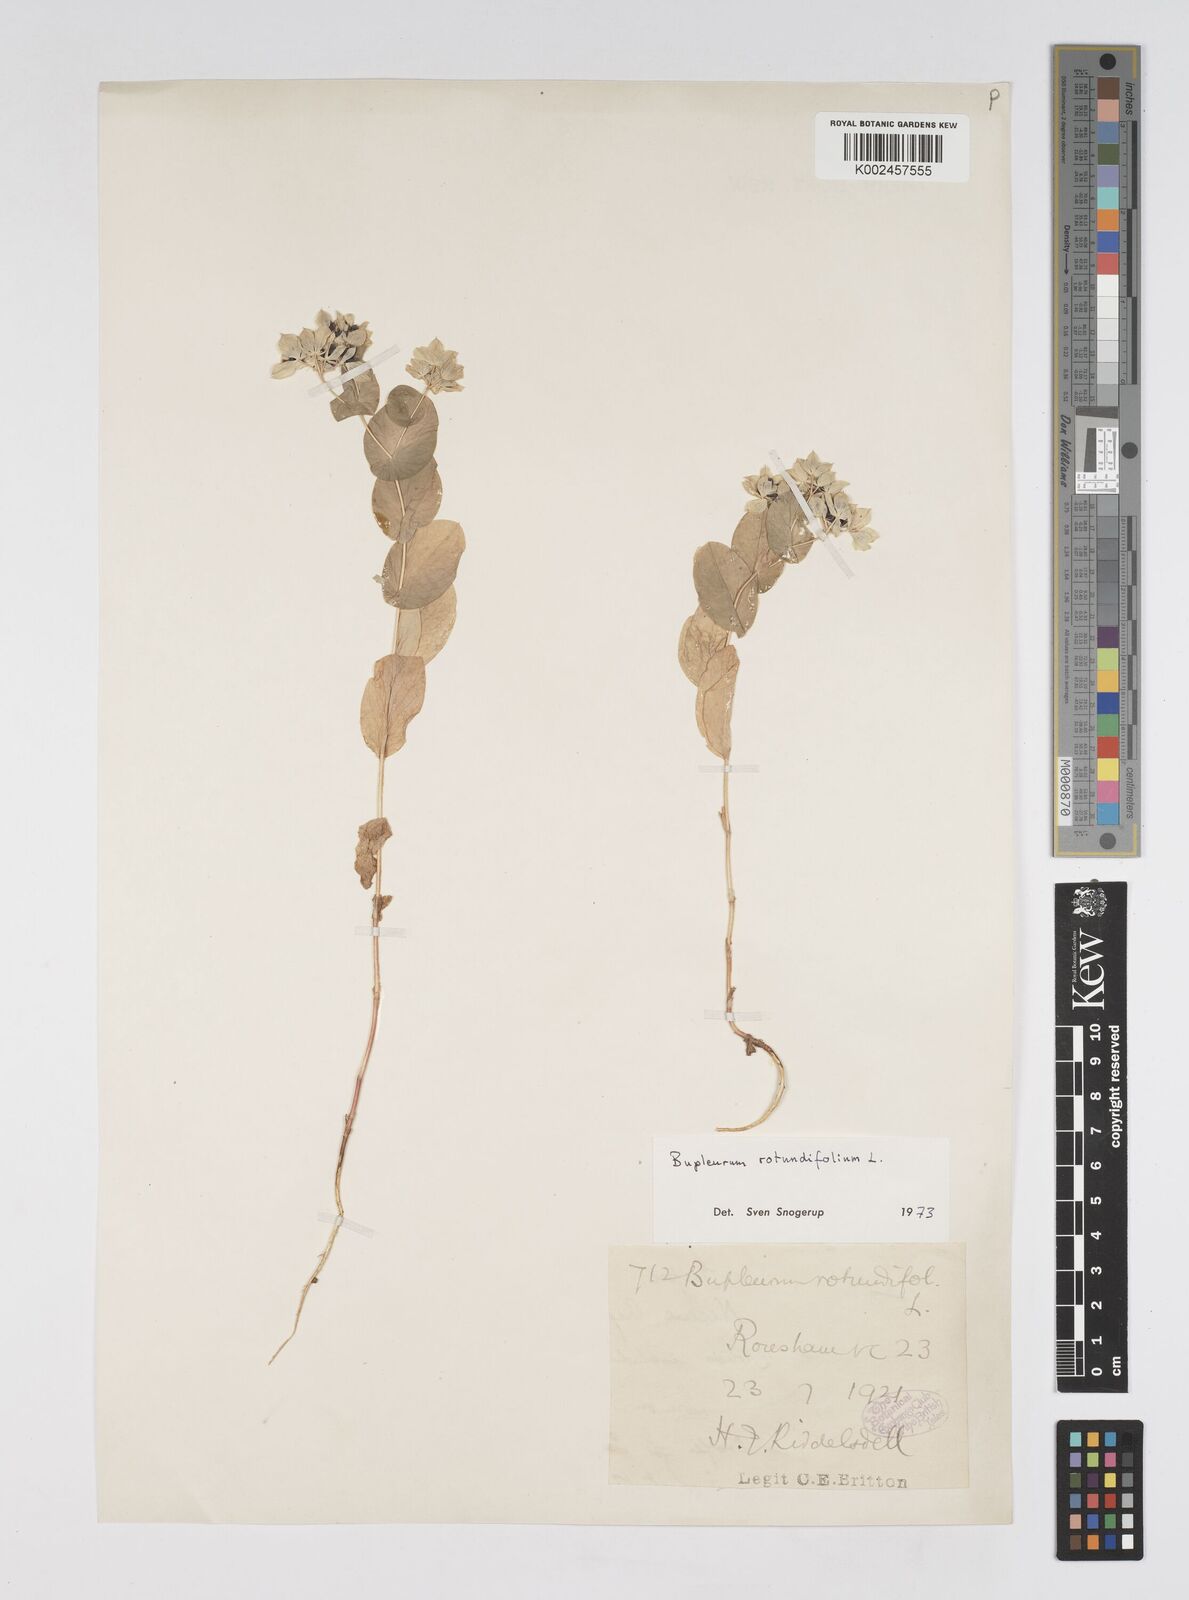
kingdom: Plantae
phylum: Tracheophyta
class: Magnoliopsida
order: Apiales
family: Apiaceae
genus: Bupleurum
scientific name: Bupleurum rotundifolium
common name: Thorow-wax
